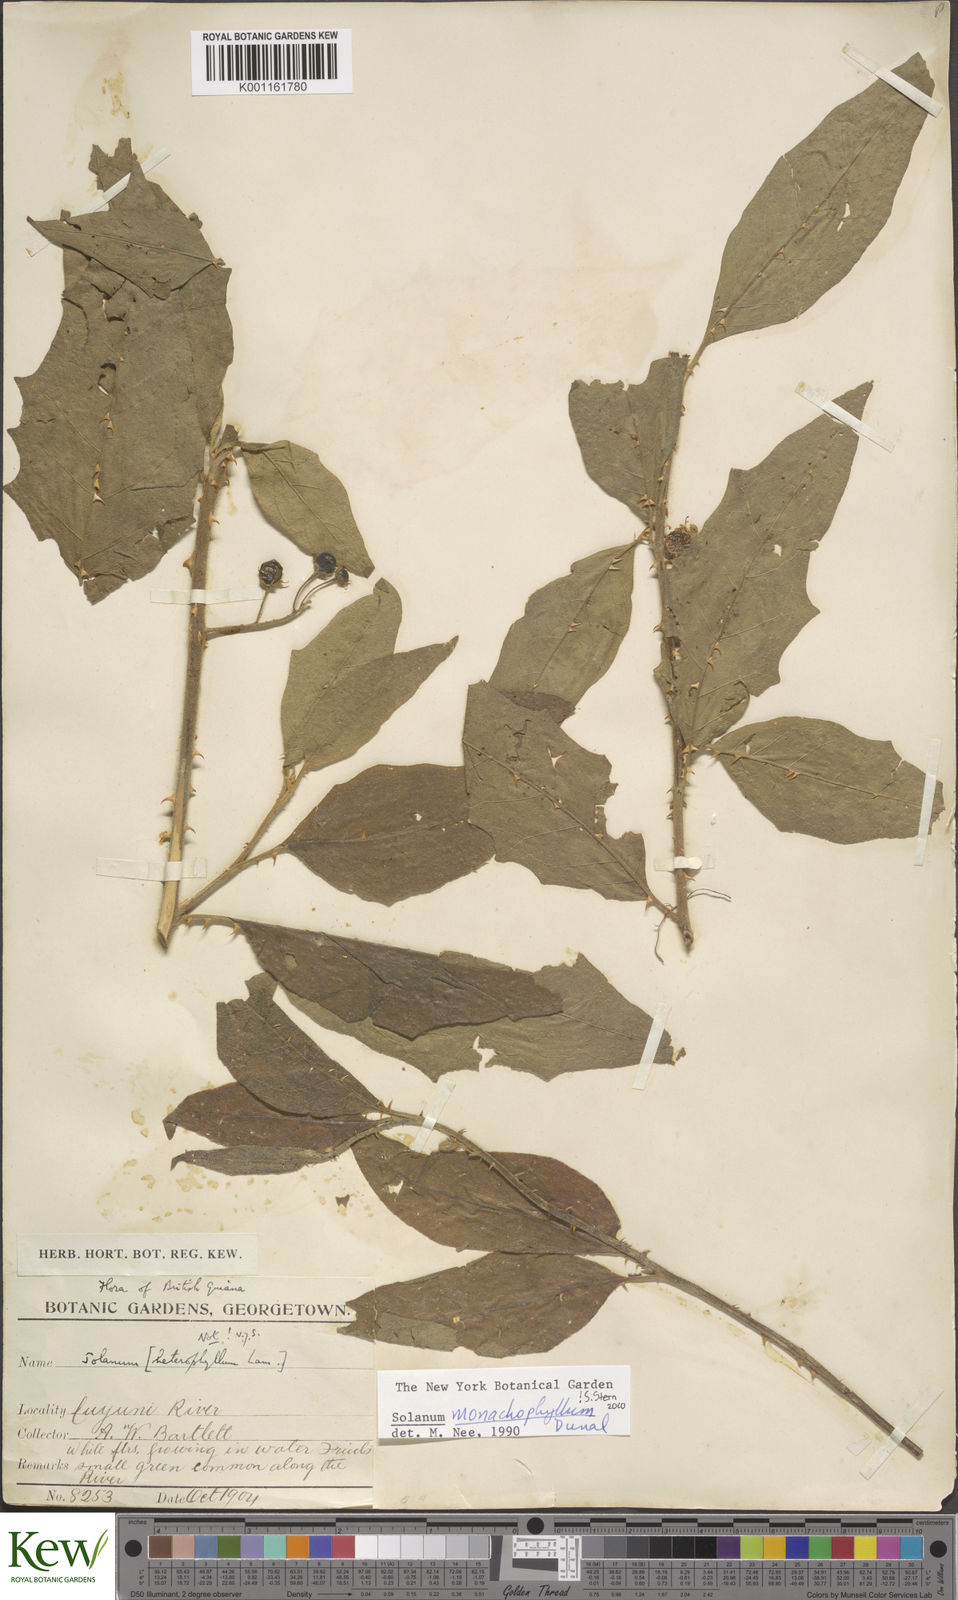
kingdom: Plantae
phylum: Tracheophyta
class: Magnoliopsida
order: Solanales
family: Solanaceae
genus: Solanum
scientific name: Solanum monachophyllum
